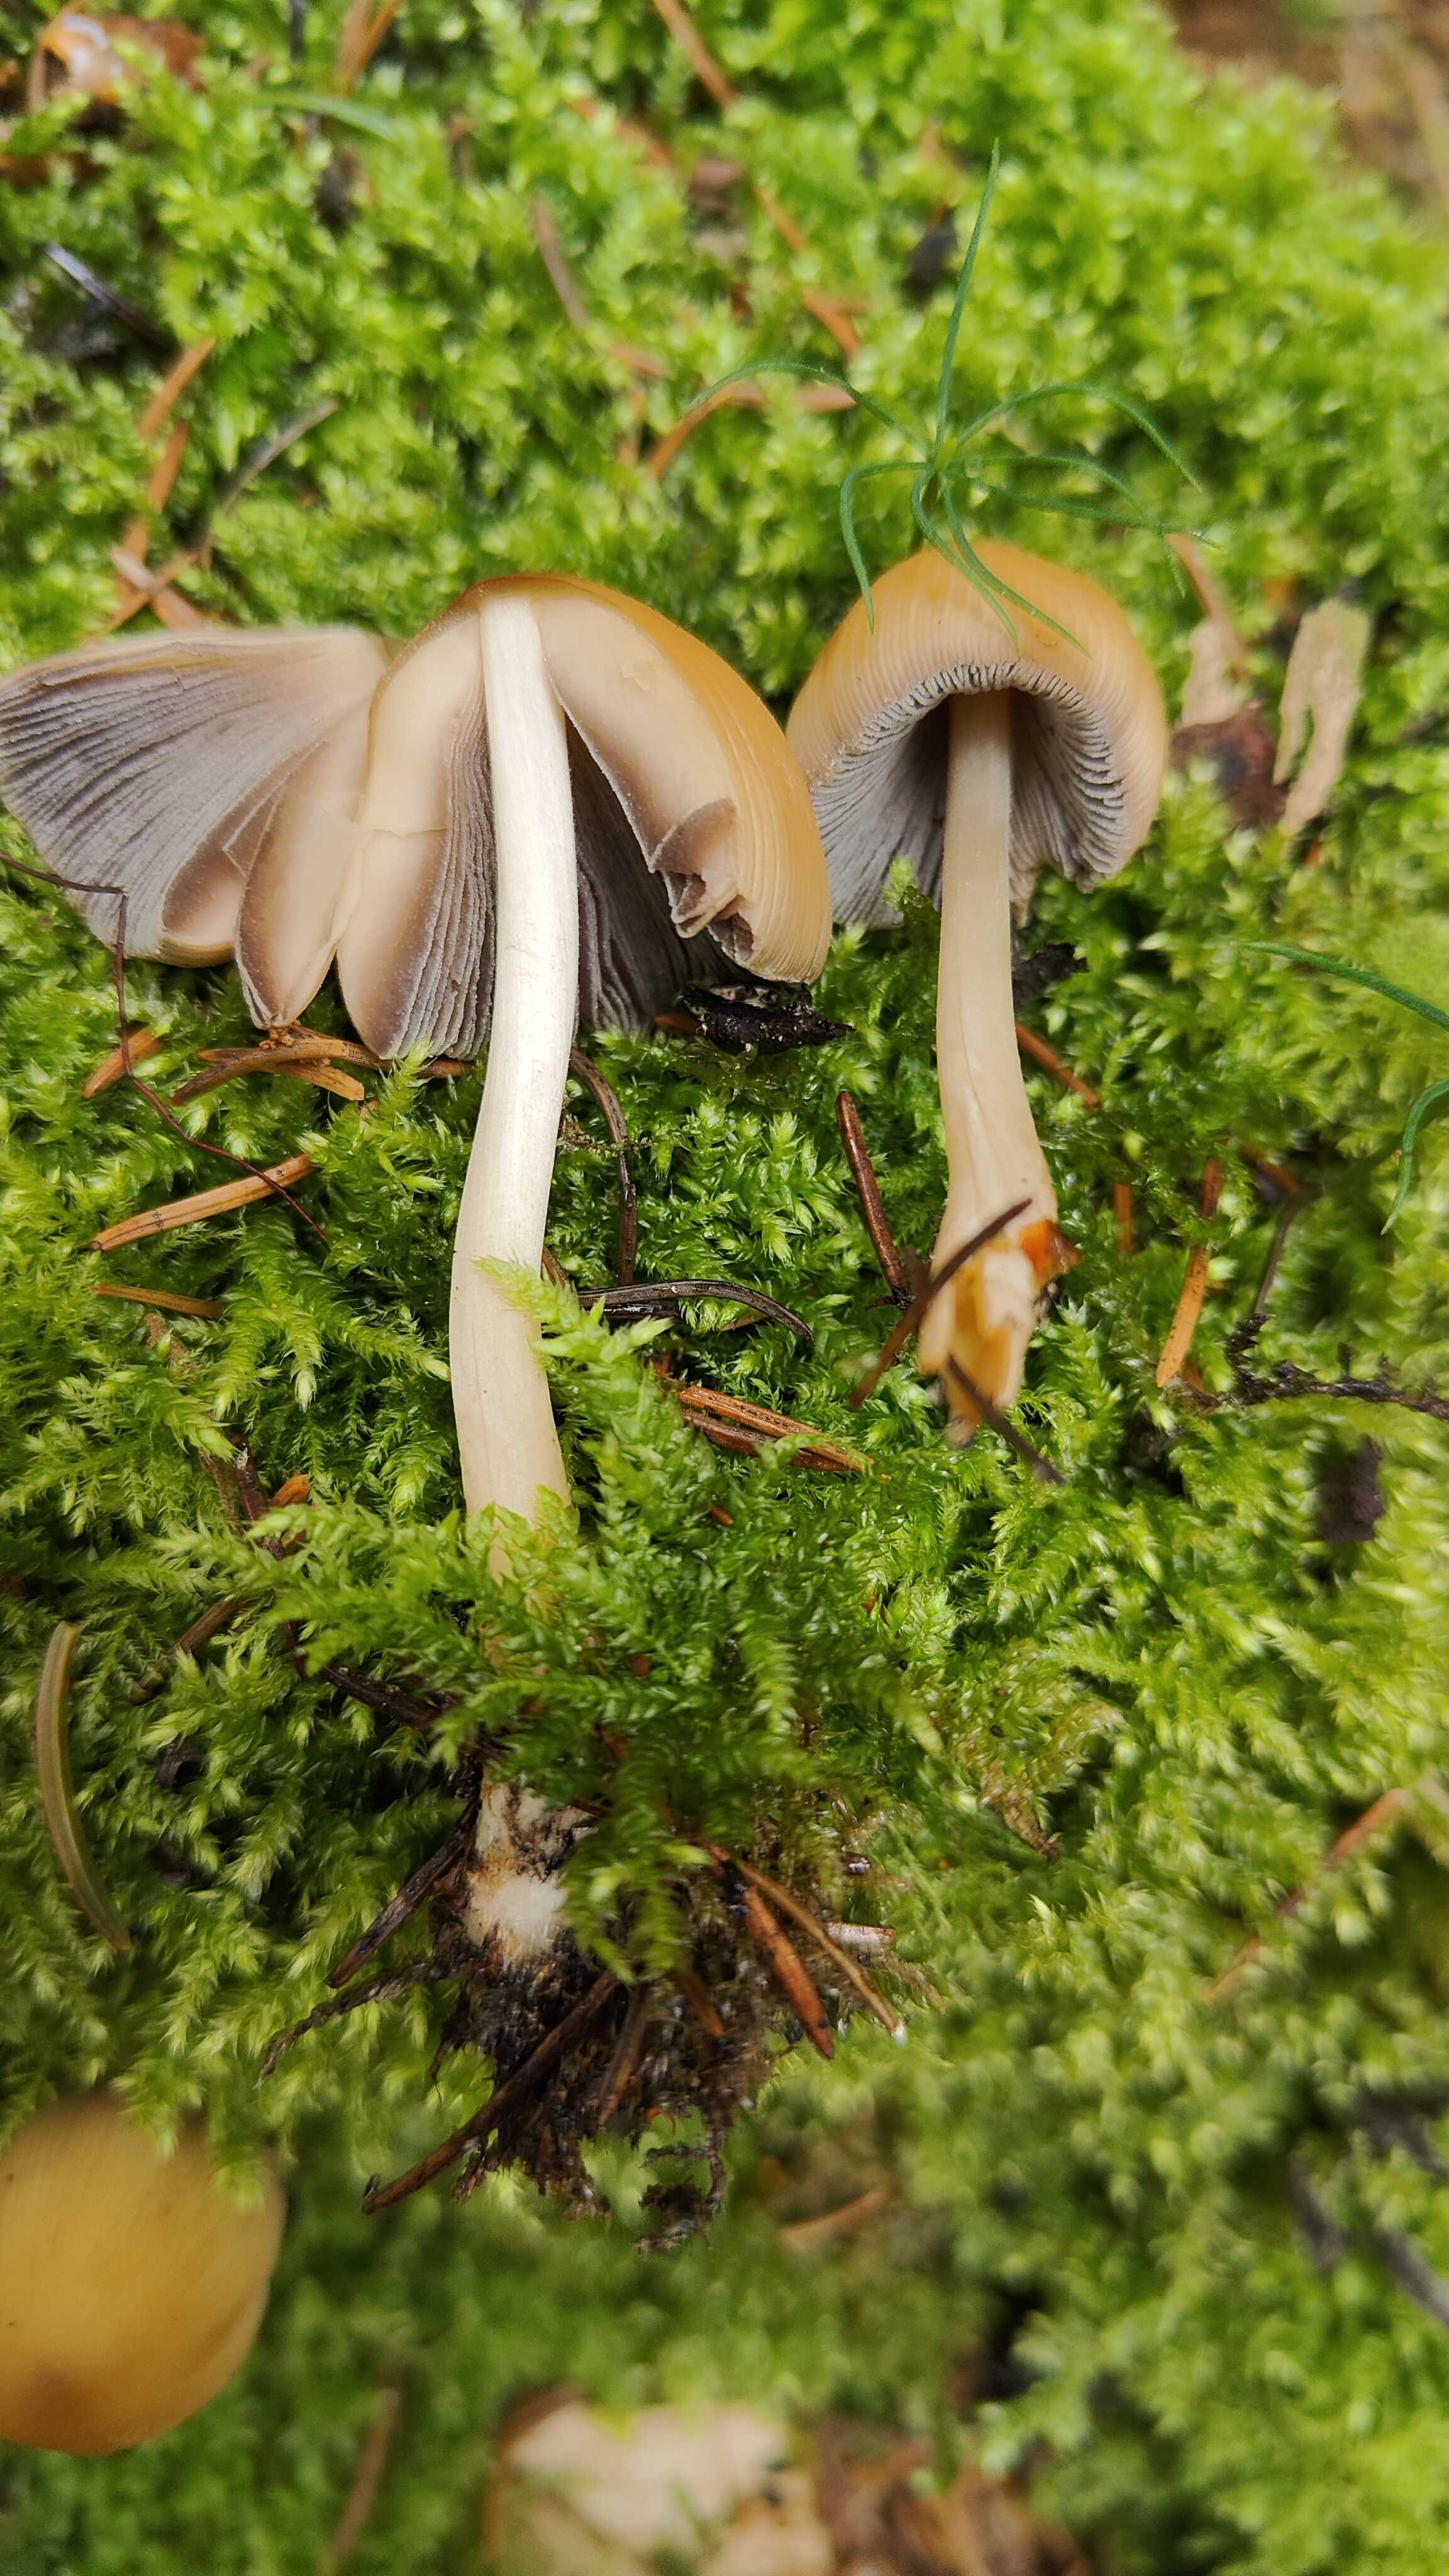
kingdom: Fungi
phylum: Basidiomycota
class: Agaricomycetes
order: Agaricales
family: Psathyrellaceae
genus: Coprinellus
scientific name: Coprinellus
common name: blækhat
